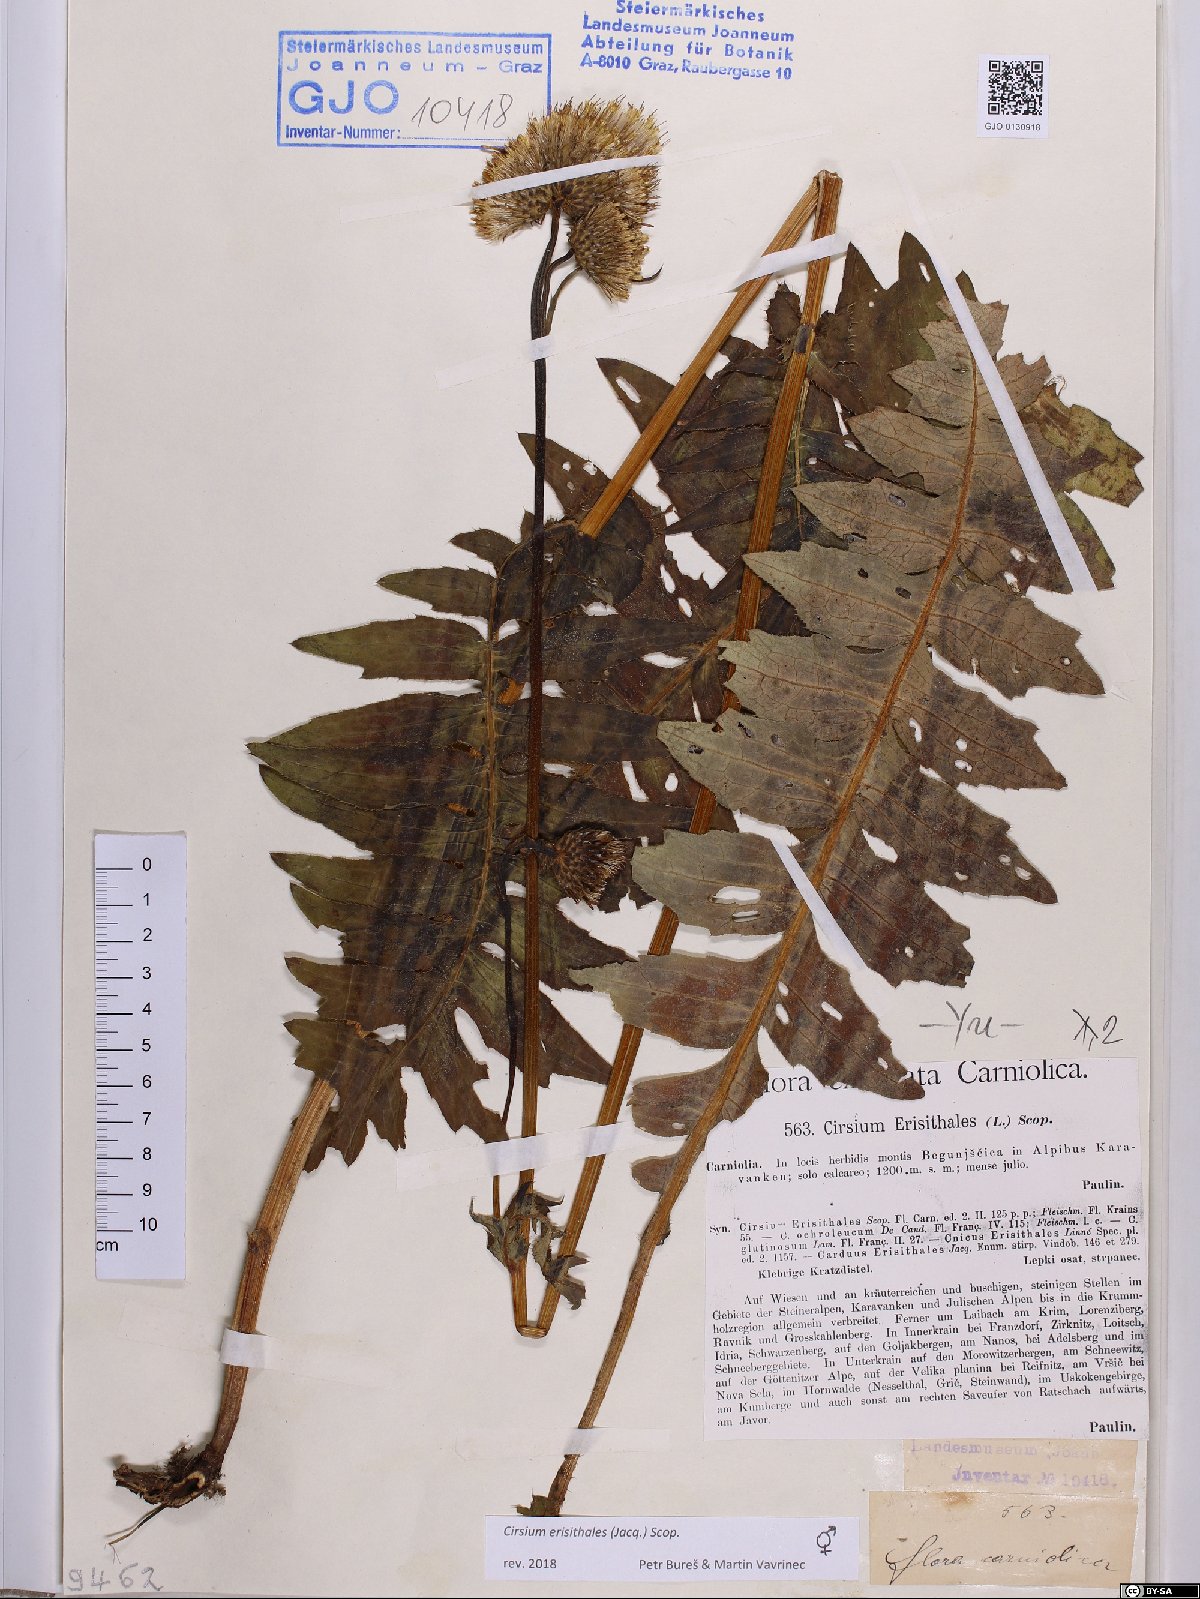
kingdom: Plantae
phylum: Tracheophyta
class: Magnoliopsida
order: Asterales
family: Asteraceae
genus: Cirsium
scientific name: Cirsium erisithales
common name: Yellow thistle
